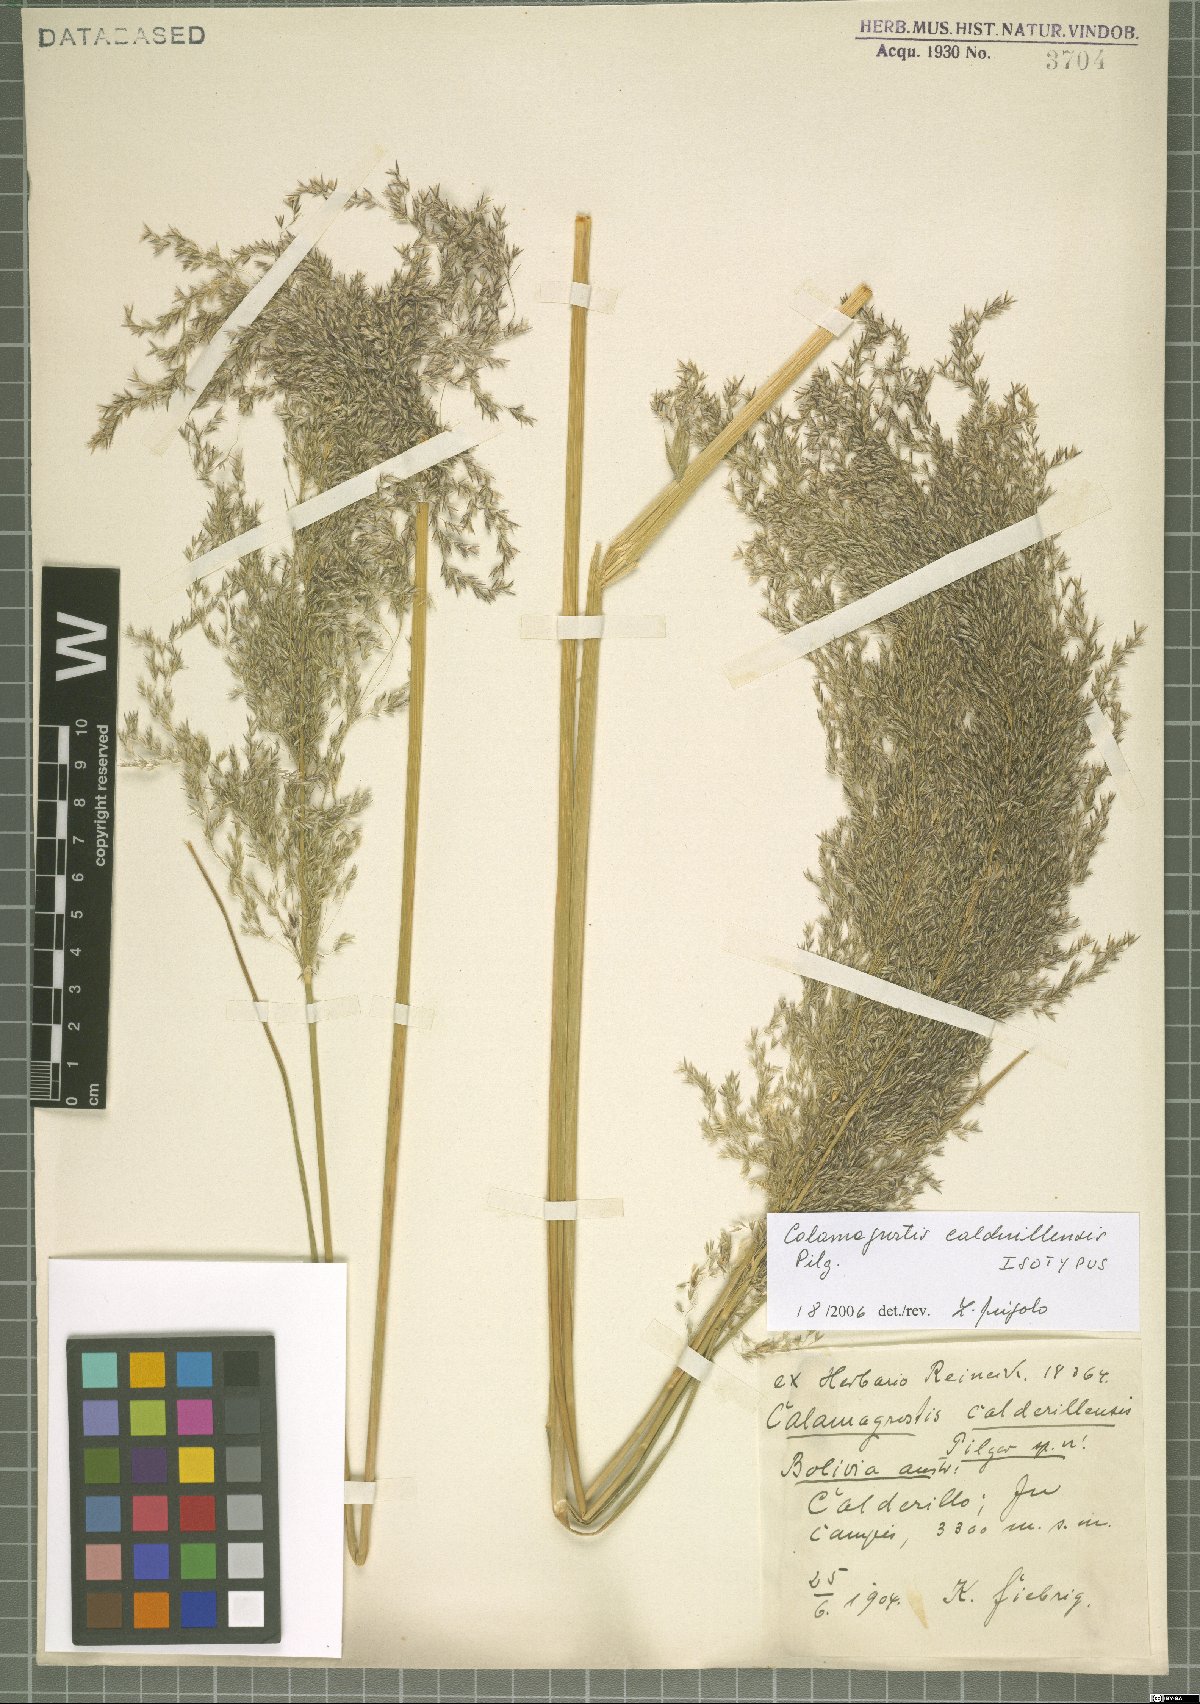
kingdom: Plantae
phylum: Tracheophyta
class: Liliopsida
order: Poales
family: Poaceae
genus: Cinnagrostis
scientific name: Cinnagrostis calderillensis
